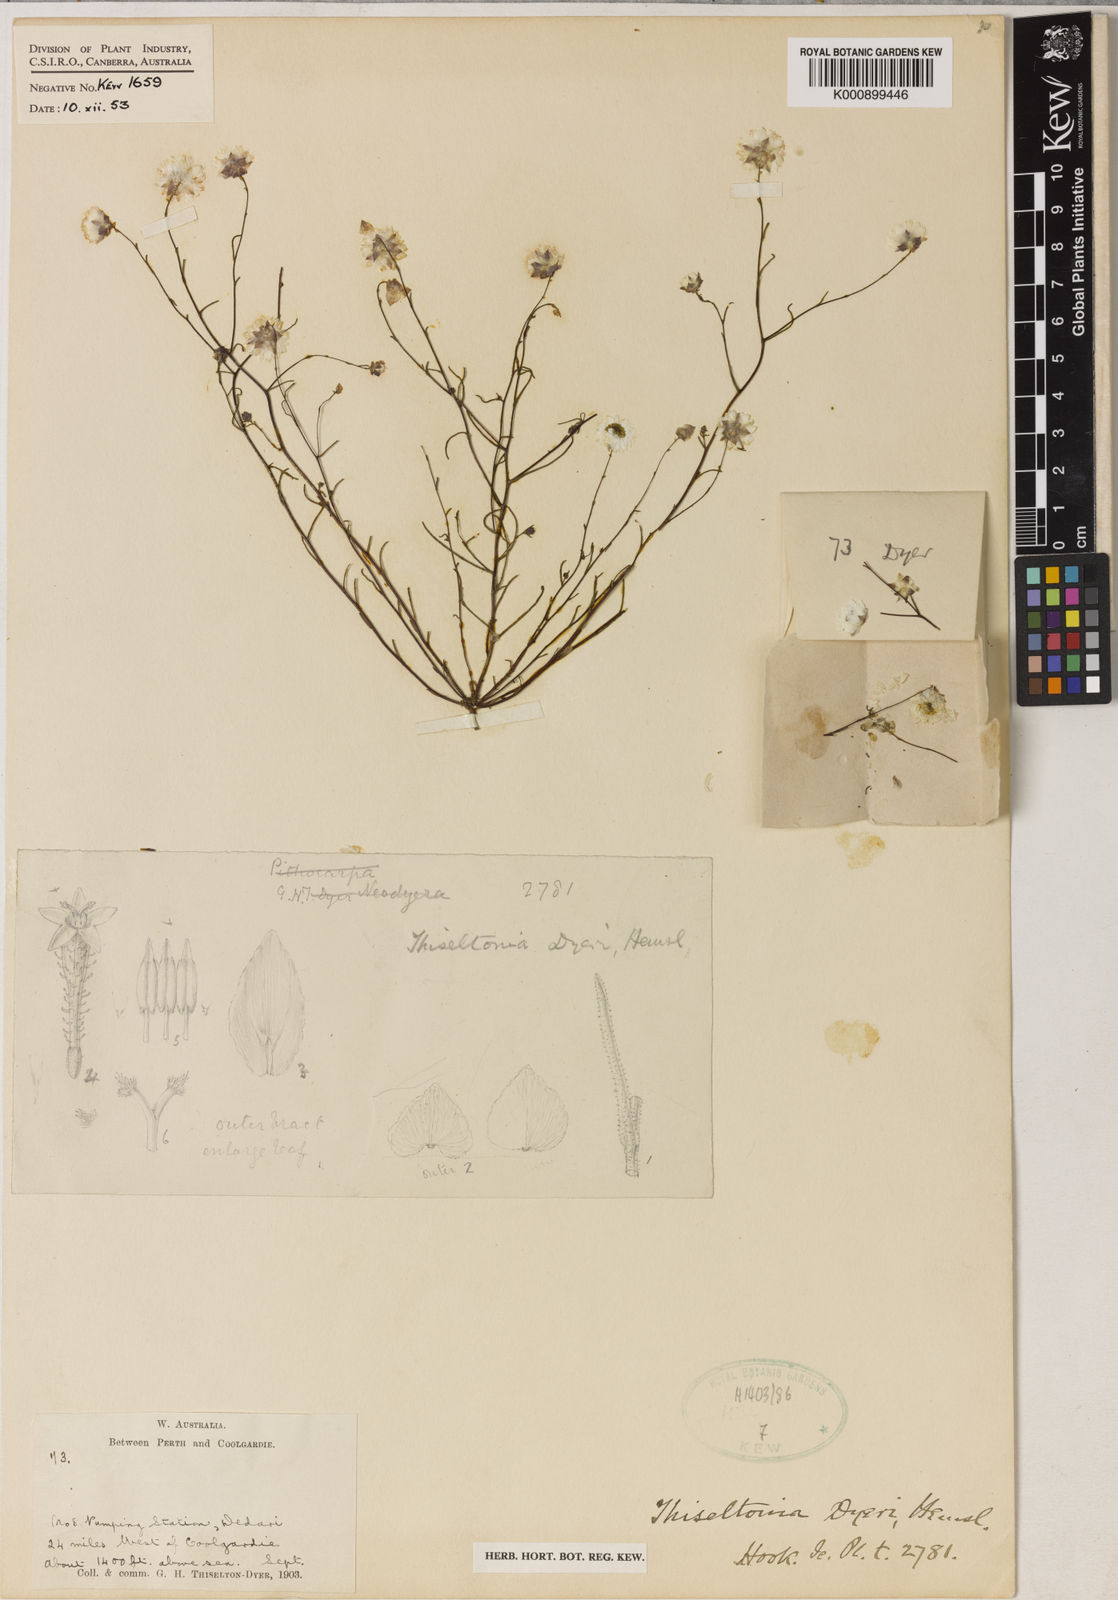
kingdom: Plantae
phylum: Tracheophyta
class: Magnoliopsida
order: Asterales
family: Asteraceae
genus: Thiseltonia
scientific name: Thiseltonia dyeri
